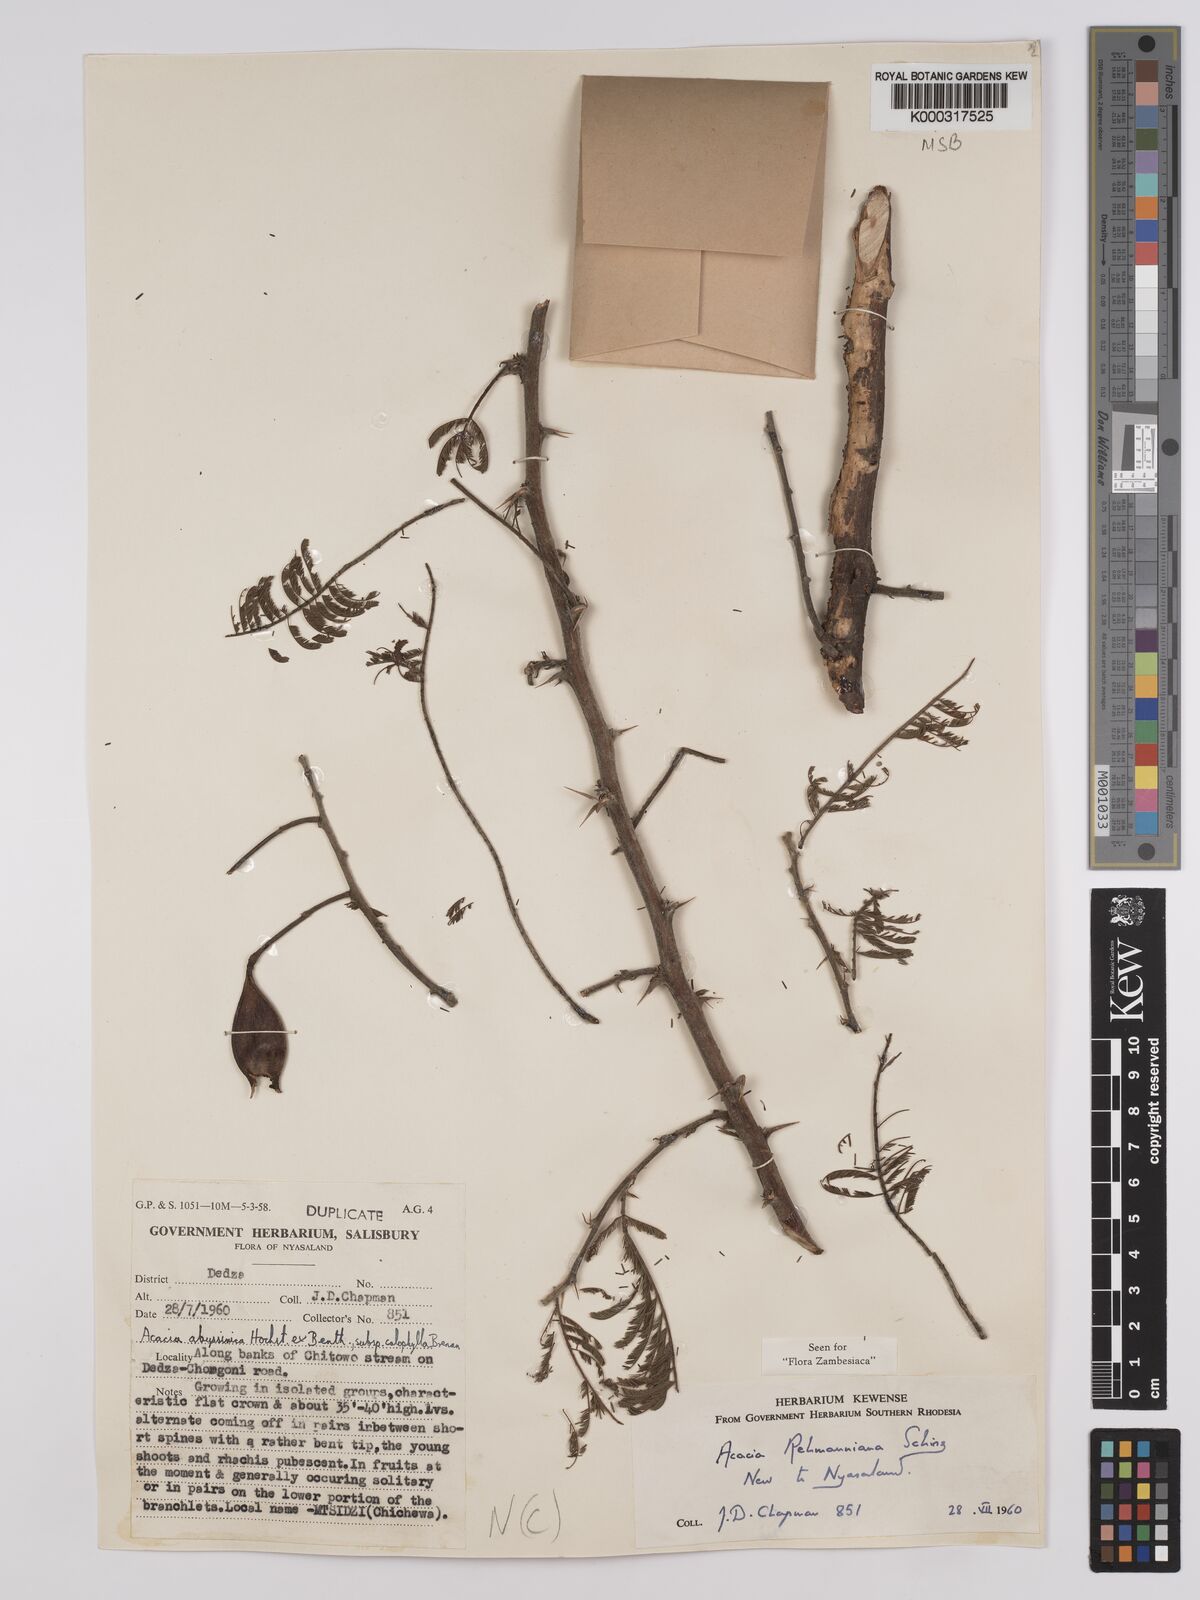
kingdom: Plantae
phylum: Tracheophyta
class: Magnoliopsida
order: Fabales
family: Fabaceae
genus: Vachellia
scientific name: Vachellia rehmanniana
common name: Silky thorn
